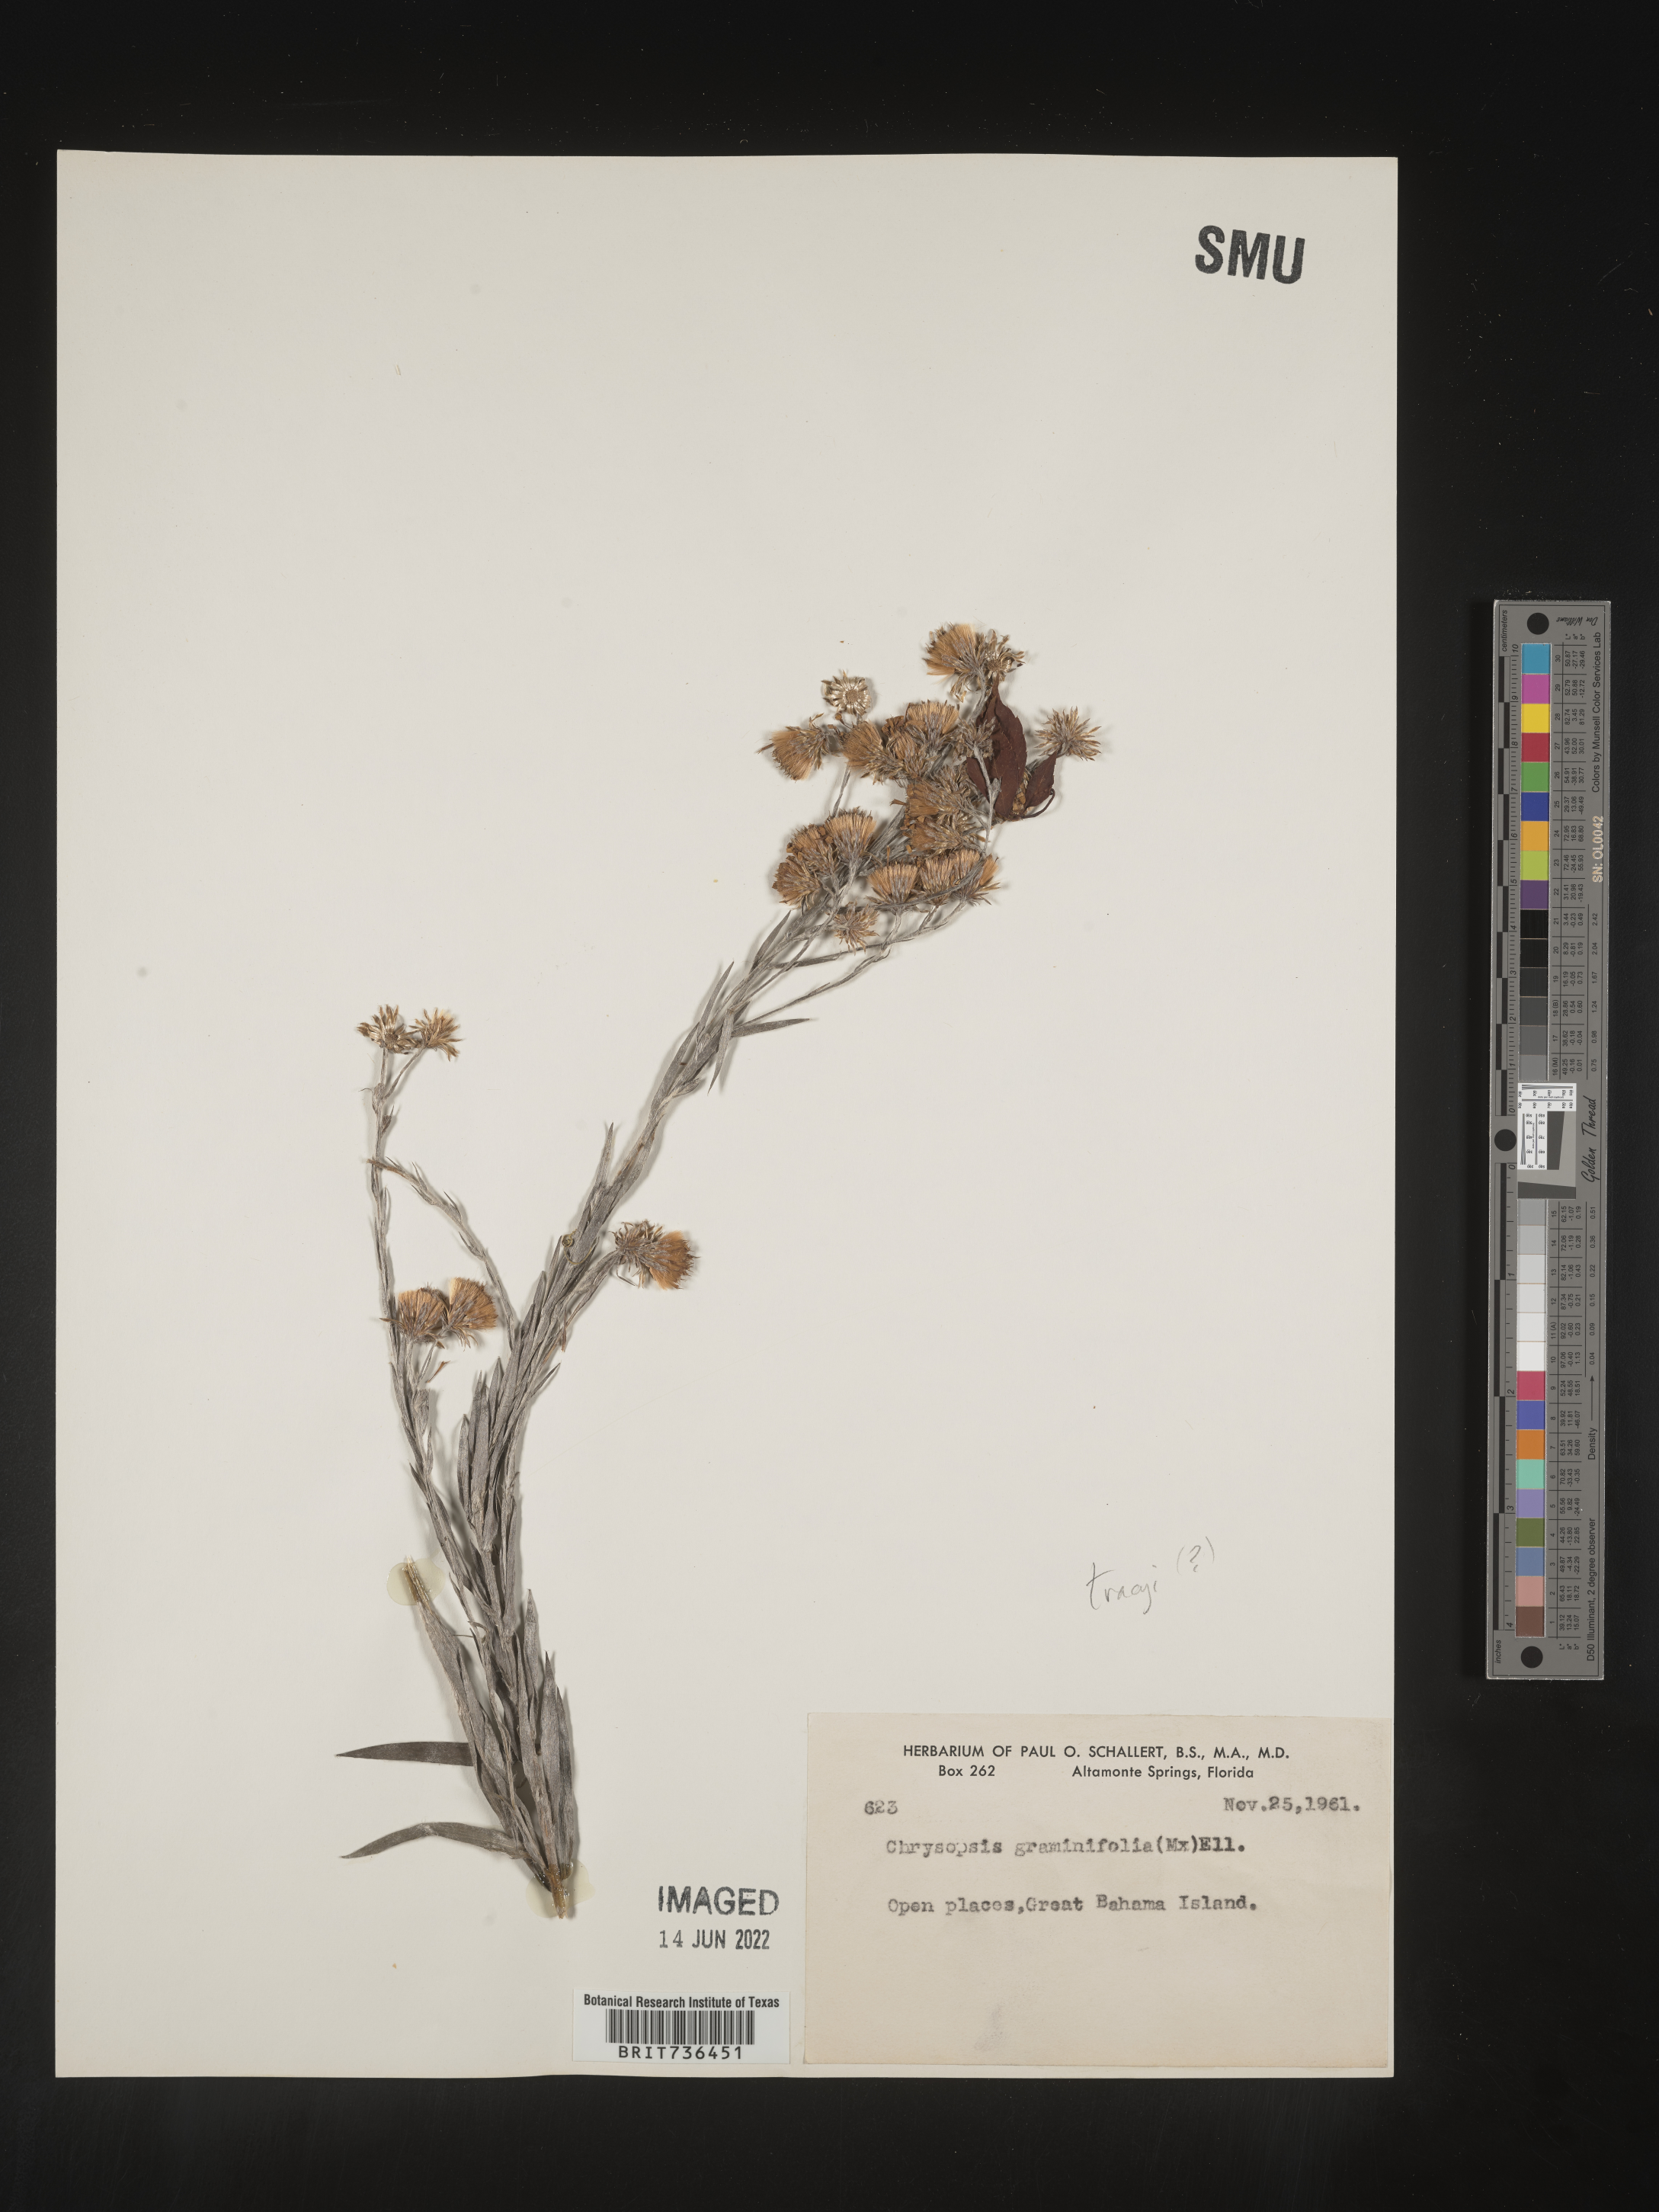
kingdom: Plantae
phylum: Tracheophyta
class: Magnoliopsida
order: Asterales
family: Asteraceae
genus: Pityopsis
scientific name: Pityopsis
